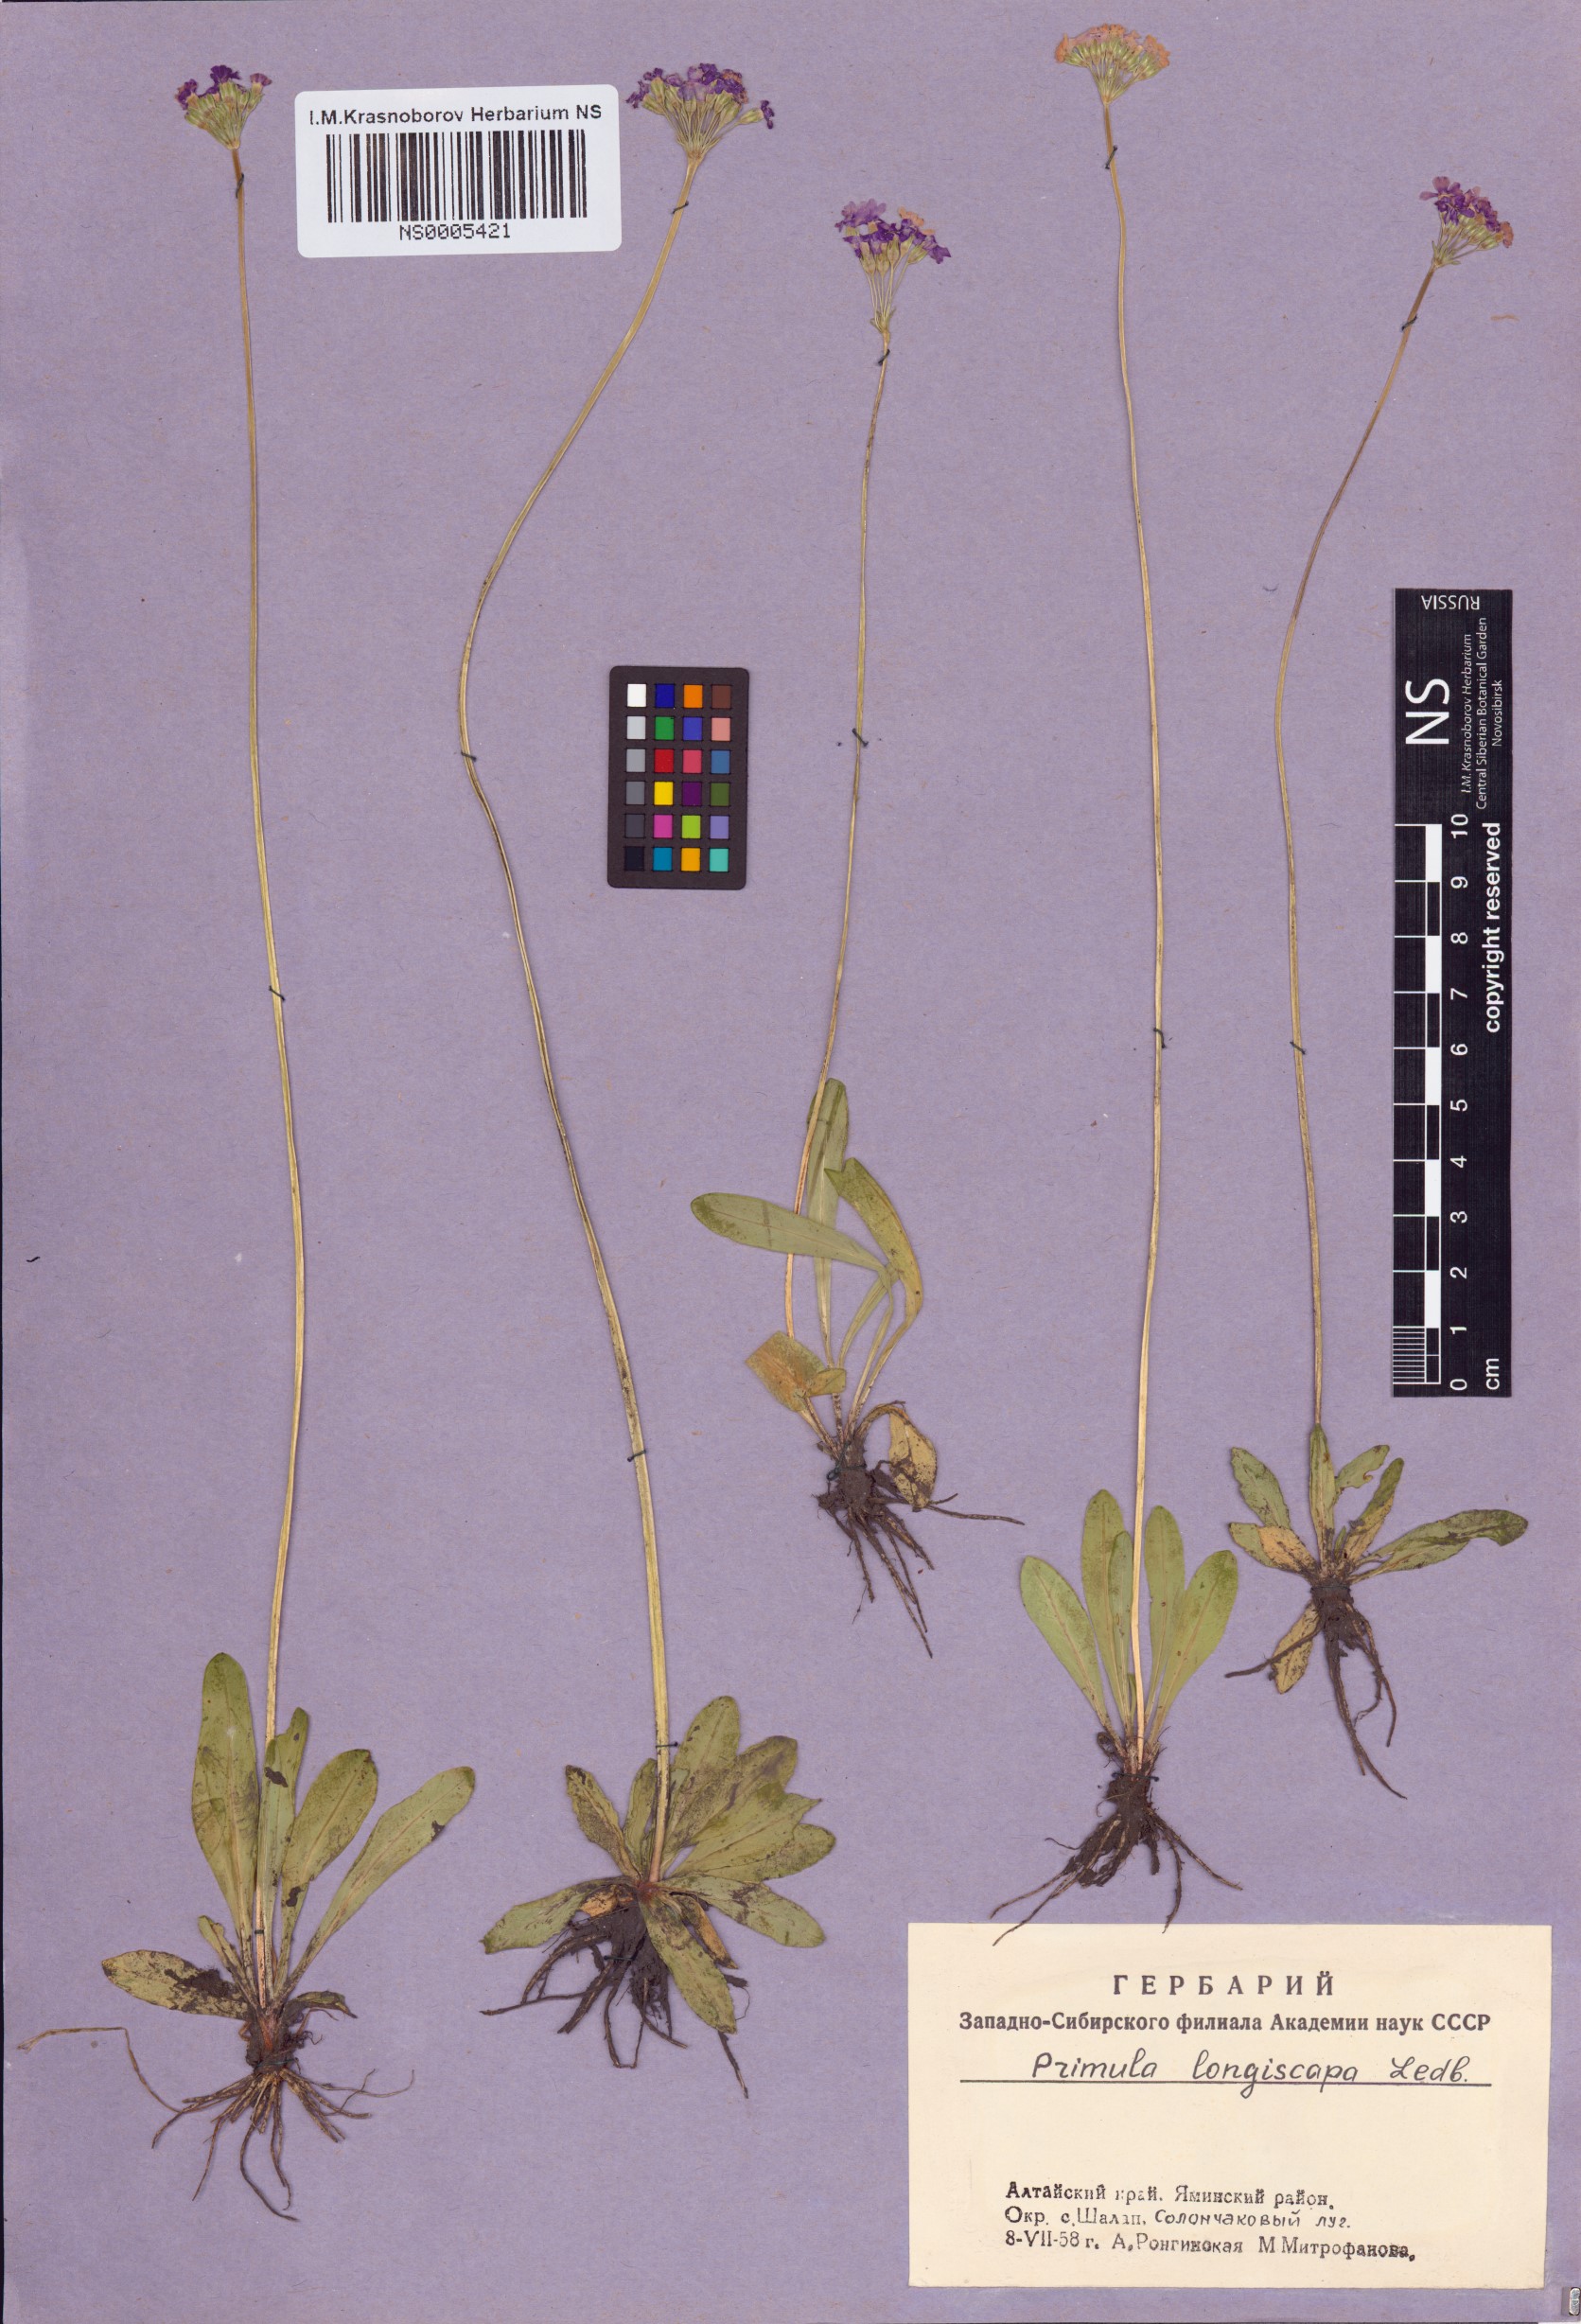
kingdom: Plantae
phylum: Tracheophyta
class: Magnoliopsida
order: Ericales
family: Primulaceae
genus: Primula
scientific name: Primula longiscapa
